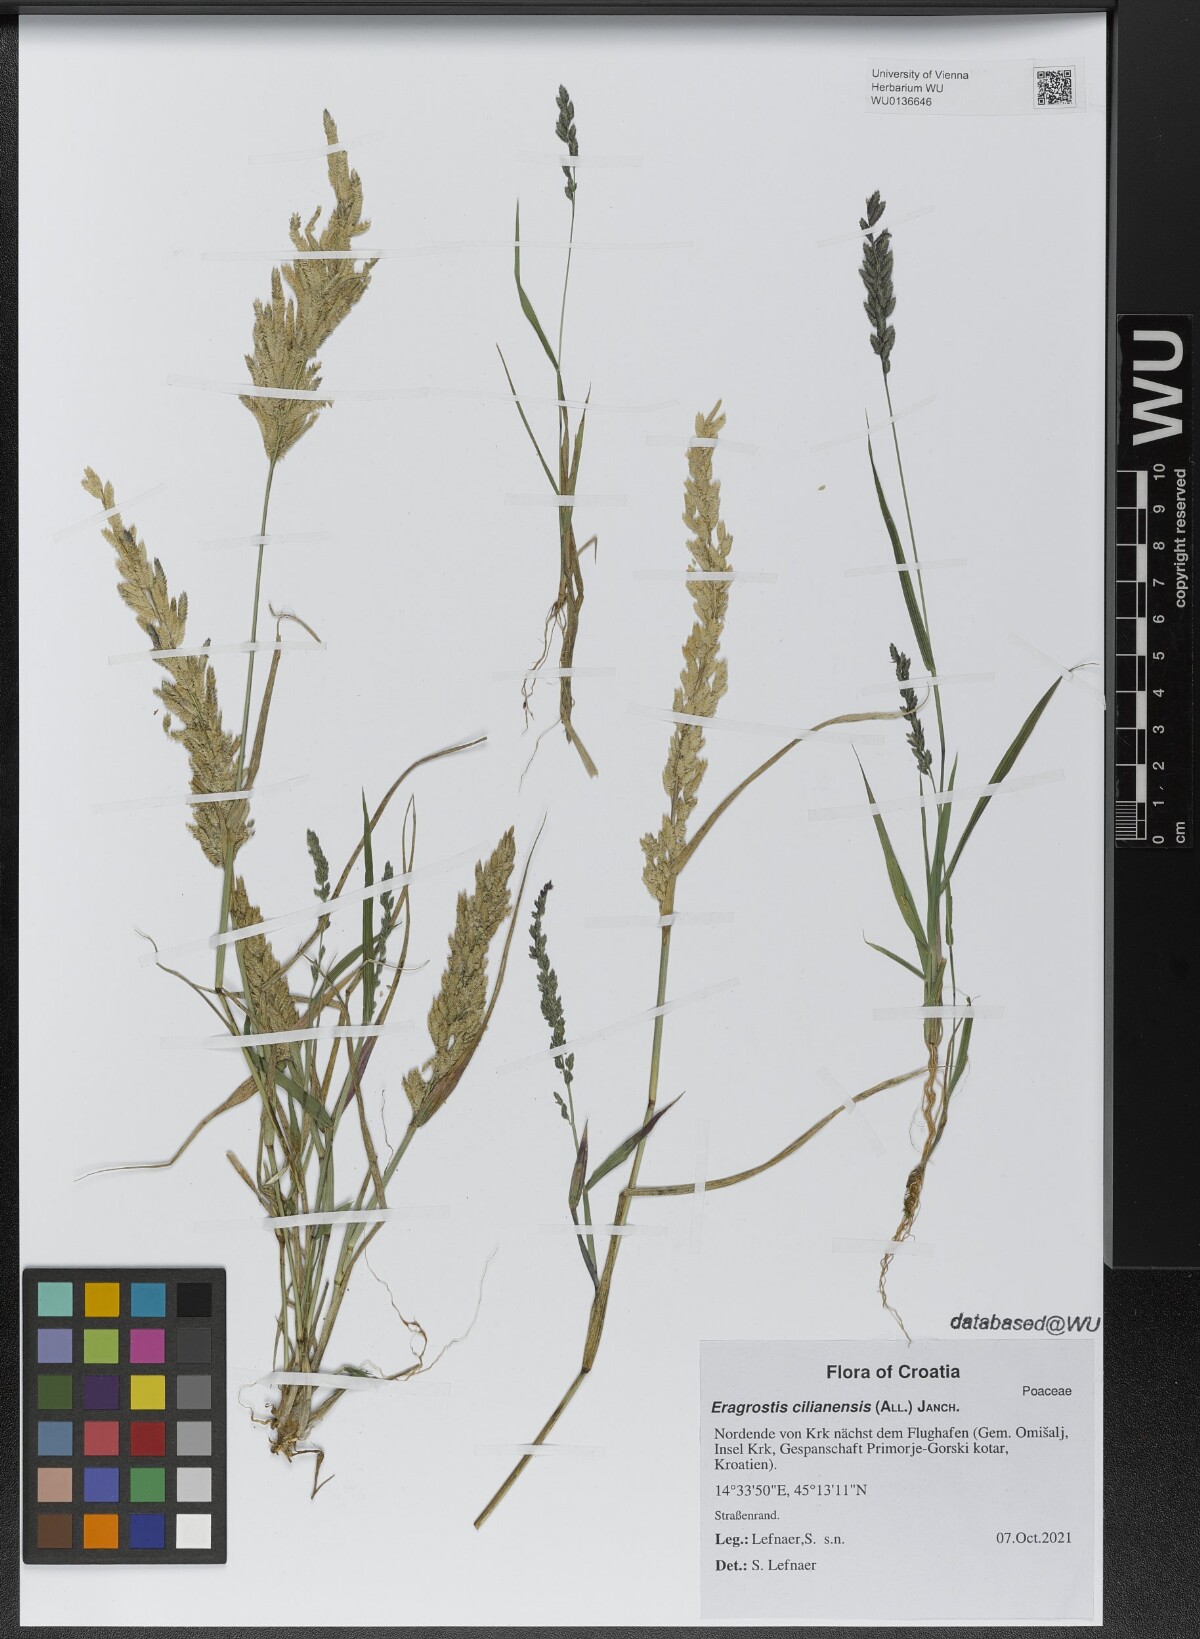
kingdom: Plantae
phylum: Tracheophyta
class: Liliopsida
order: Poales
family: Poaceae
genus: Eragrostis
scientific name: Eragrostis cilianensis
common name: Stinkgrass
